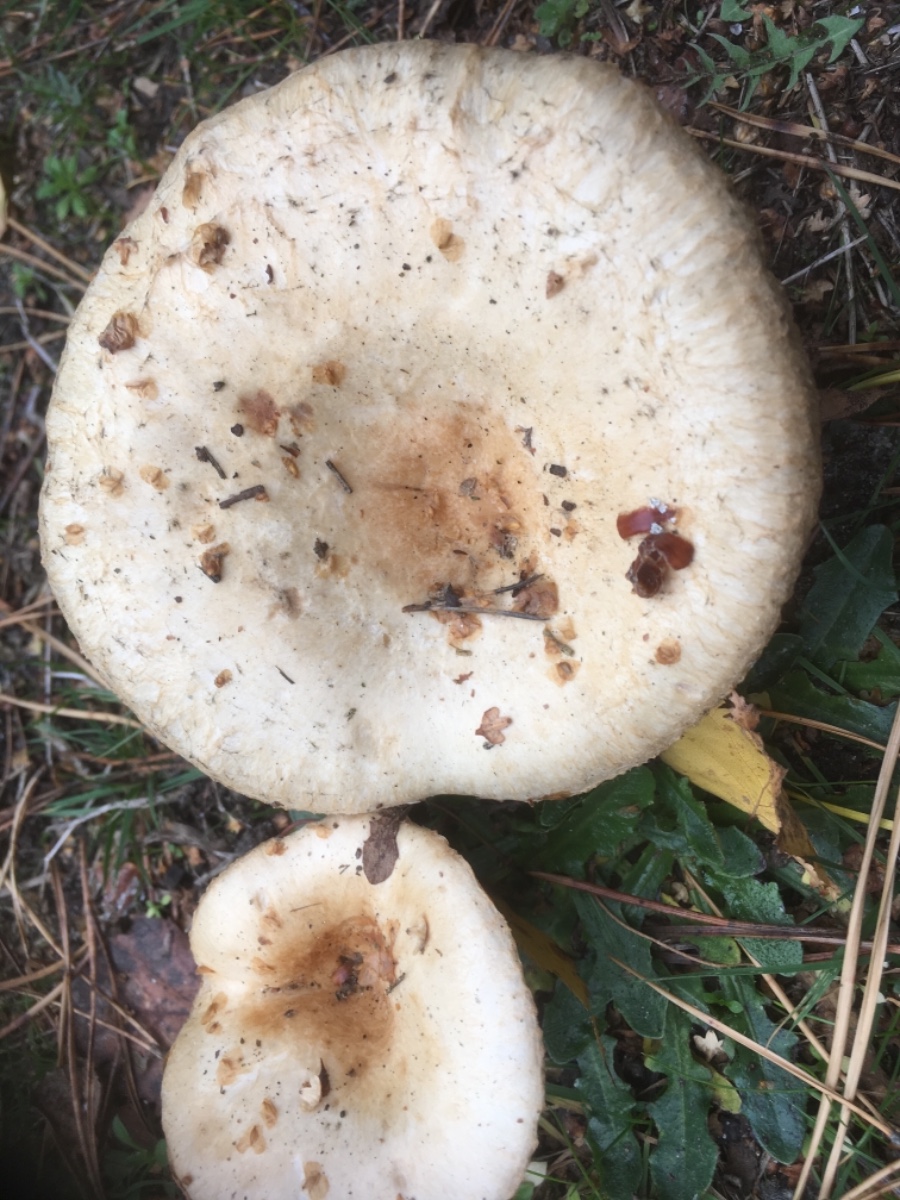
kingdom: Fungi
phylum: Basidiomycota
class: Agaricomycetes
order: Russulales
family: Russulaceae
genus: Lactarius
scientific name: Lactarius pubescens
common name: dunet mælkehat
